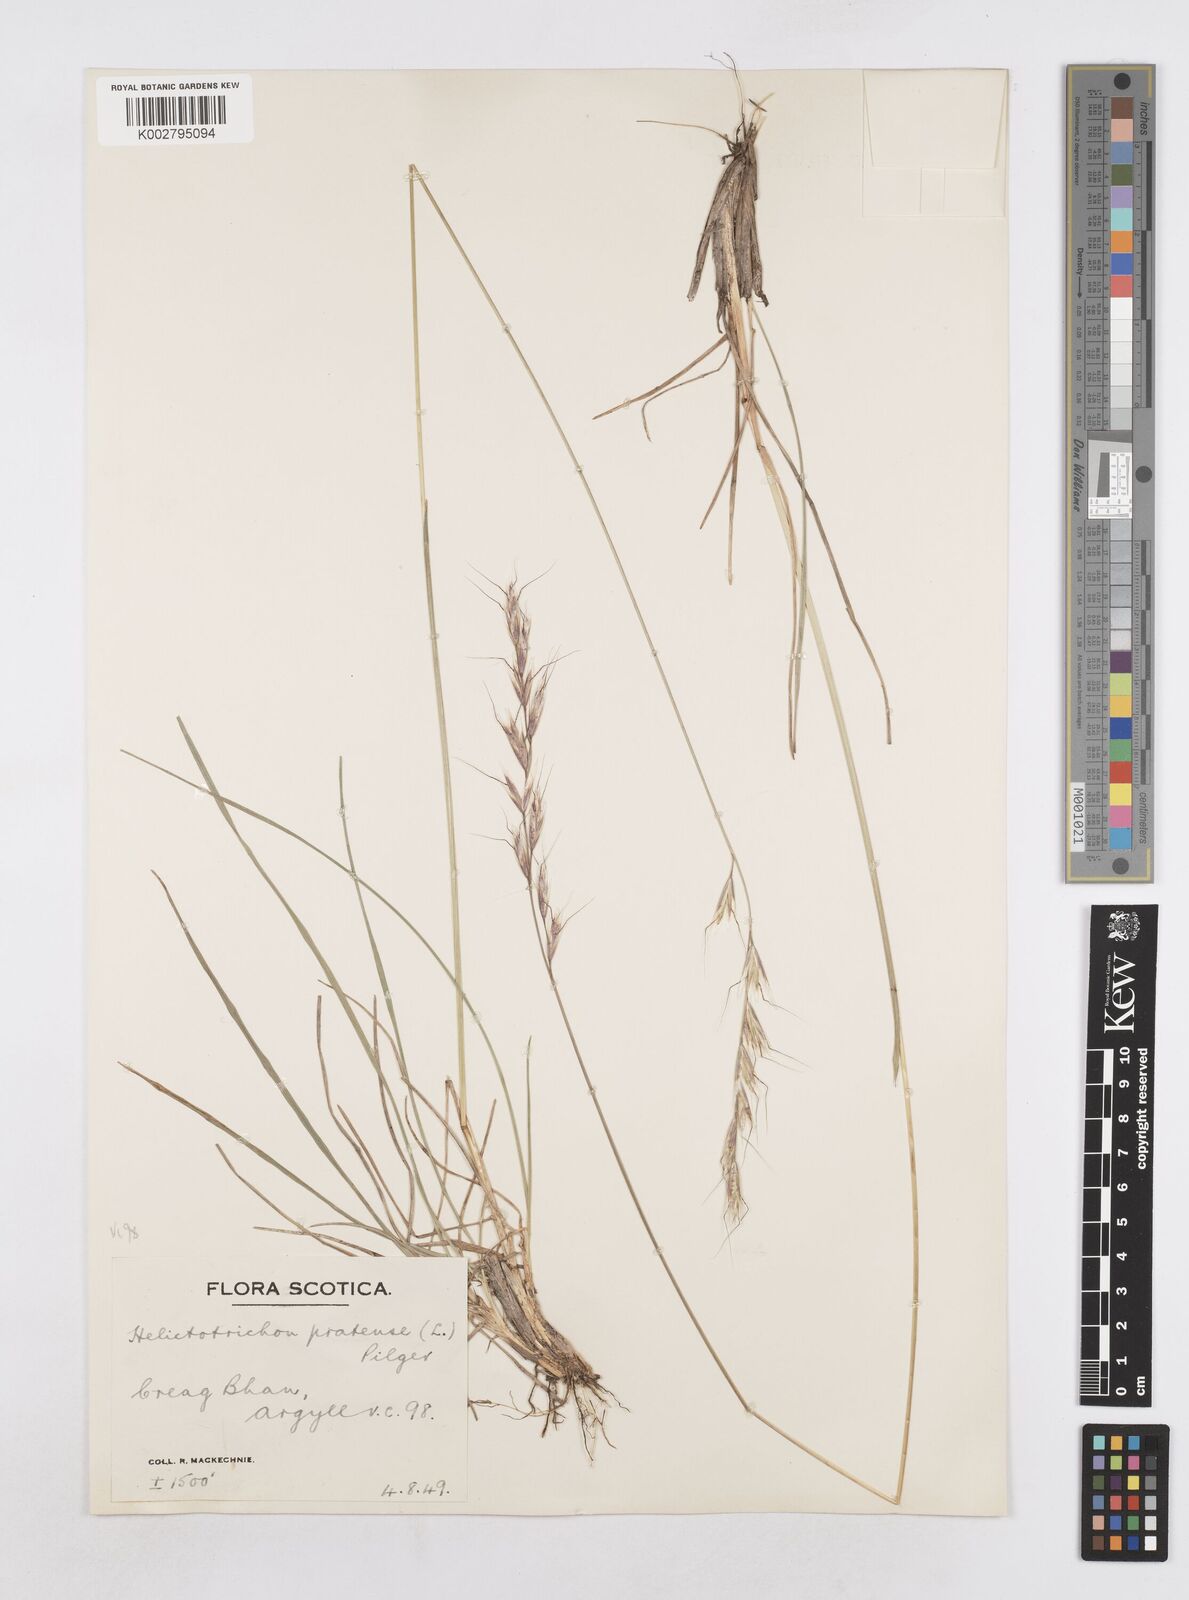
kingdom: Plantae
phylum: Tracheophyta
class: Liliopsida
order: Poales
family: Poaceae
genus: Helictochloa
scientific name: Helictochloa pratensis
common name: Meadow oat grass
